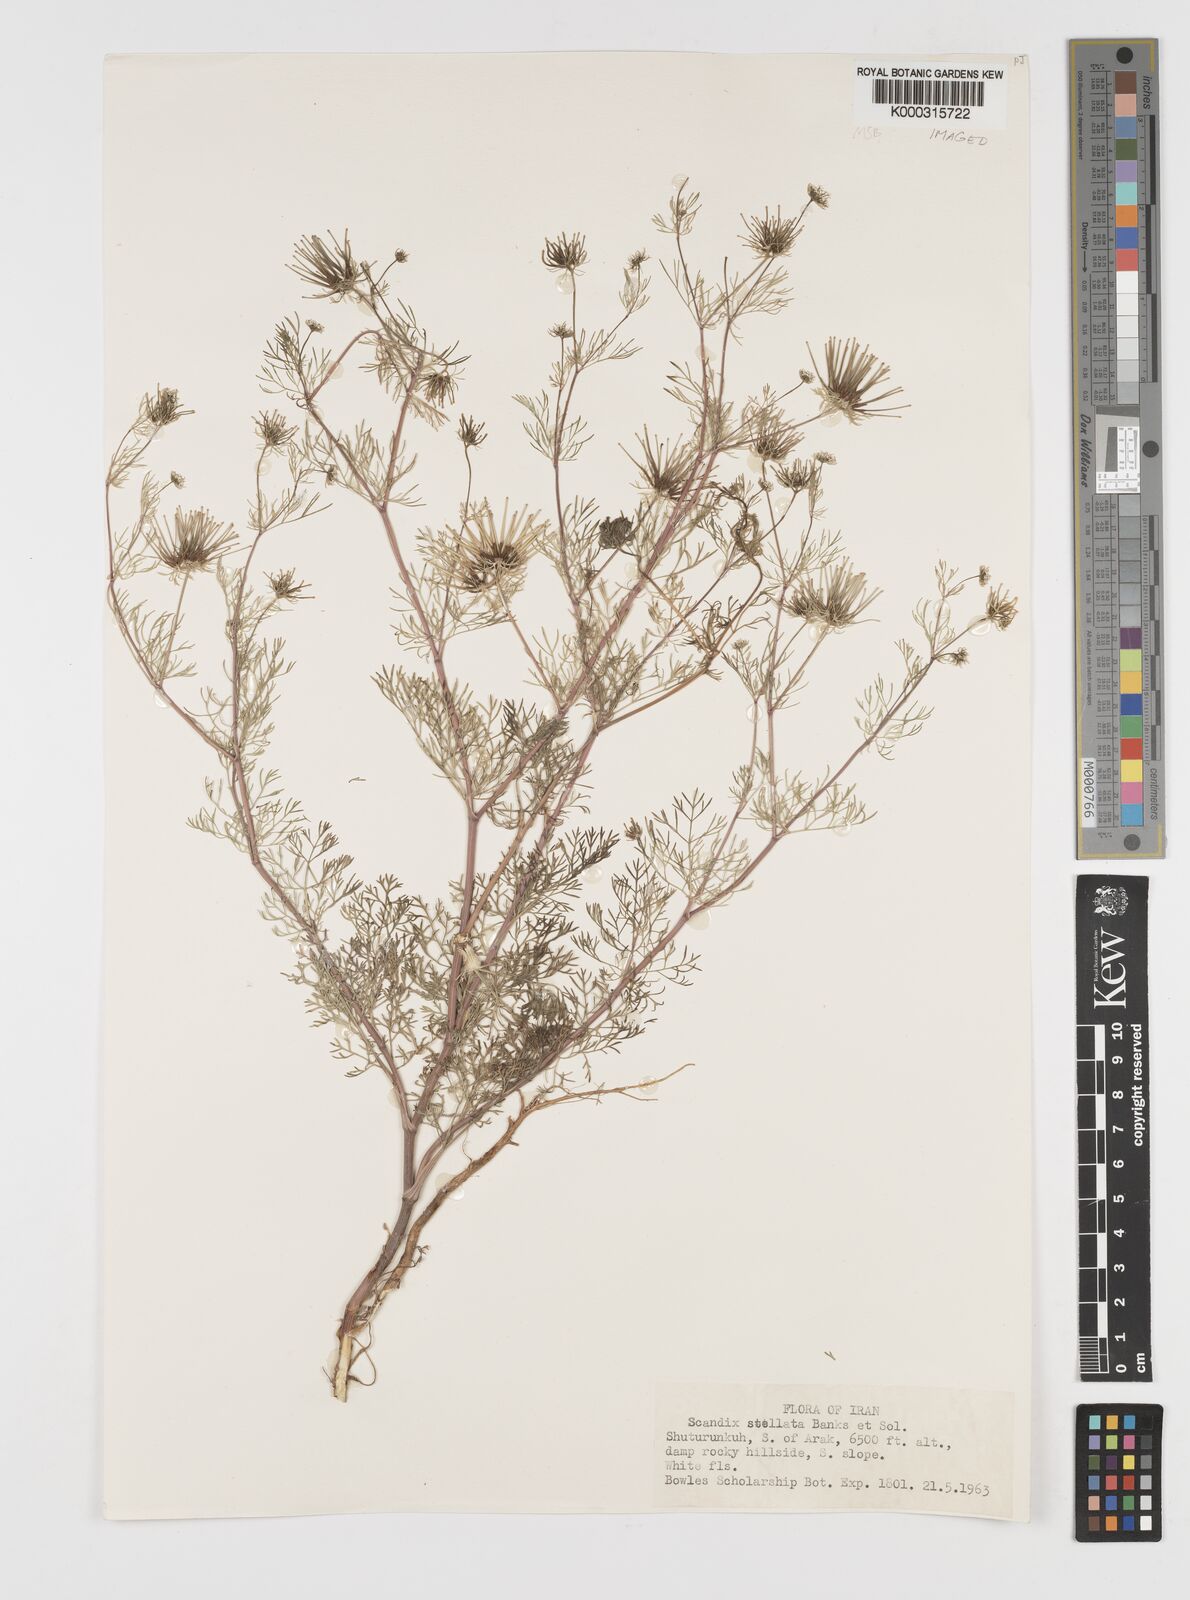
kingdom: Plantae
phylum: Tracheophyta
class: Magnoliopsida
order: Apiales
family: Apiaceae
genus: Scandix
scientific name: Scandix stellata
